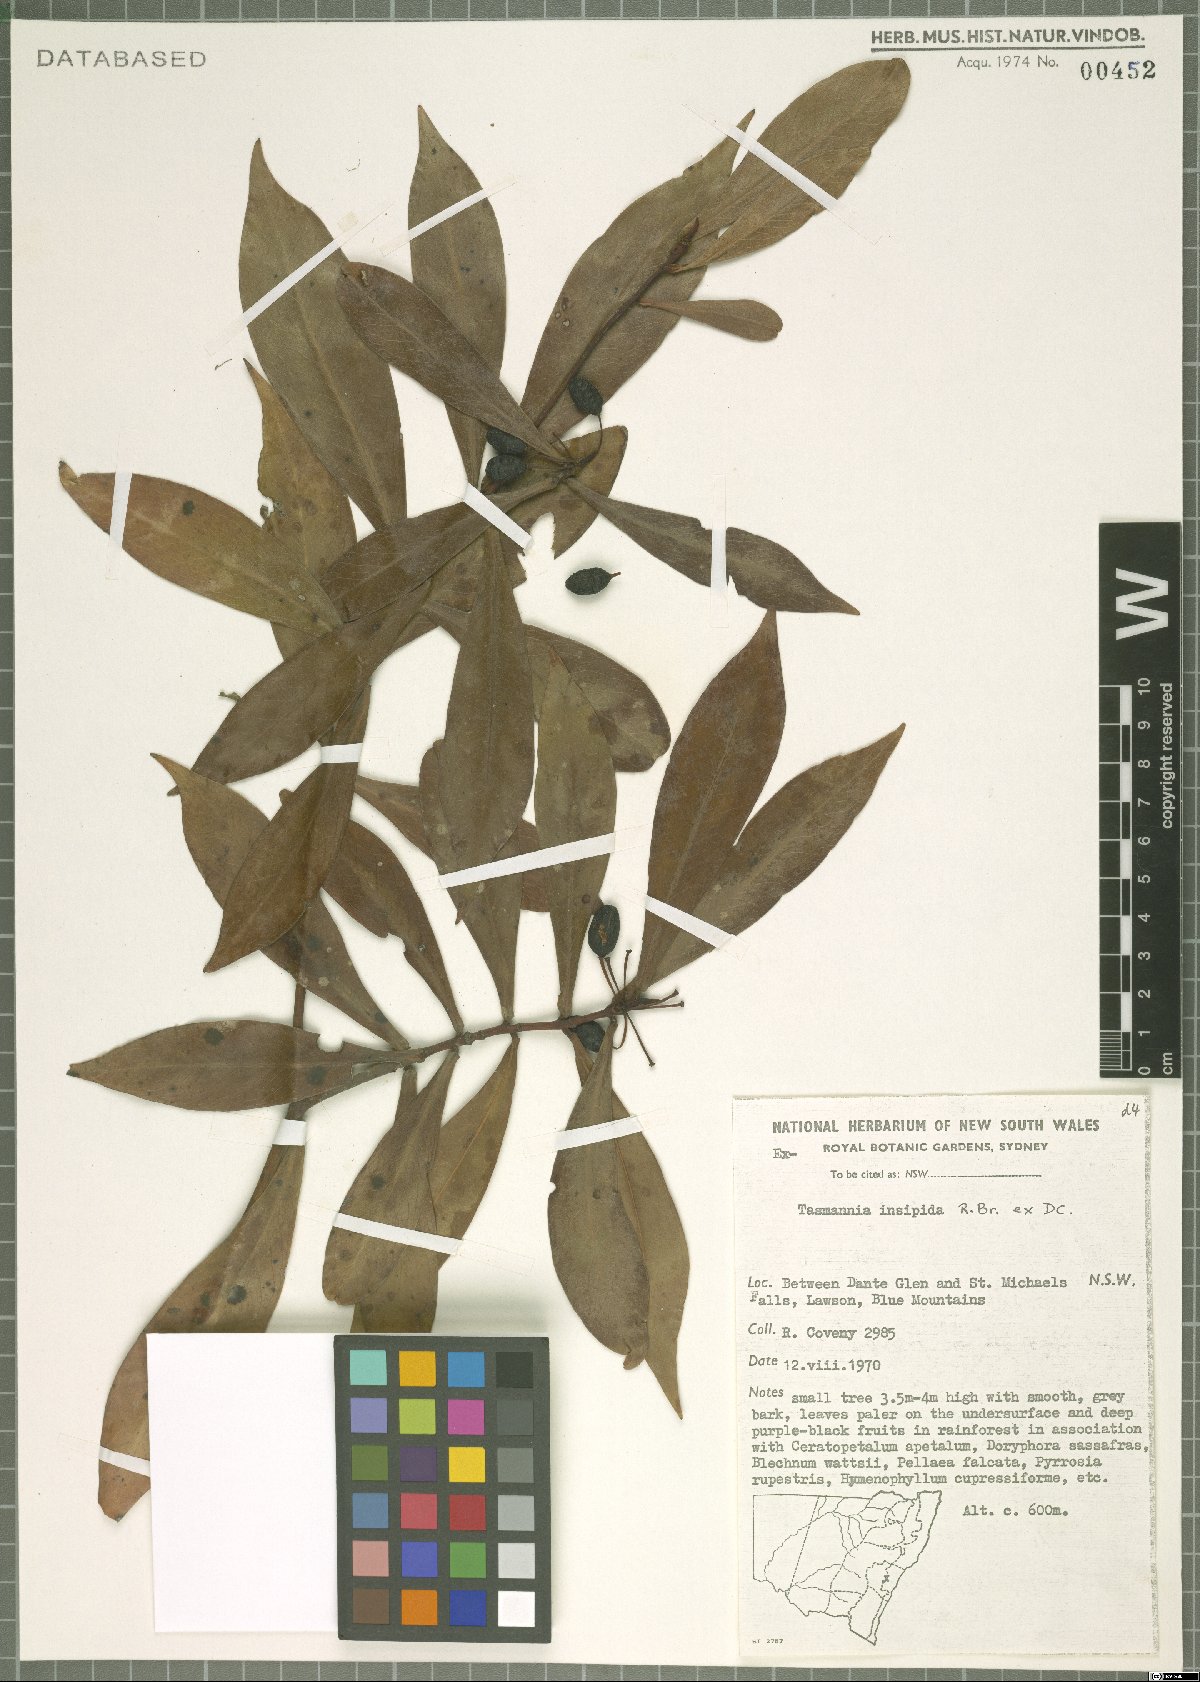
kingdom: Plantae
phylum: Tracheophyta
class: Magnoliopsida
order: Canellales
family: Winteraceae
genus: Drimys
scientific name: Drimys insipida
